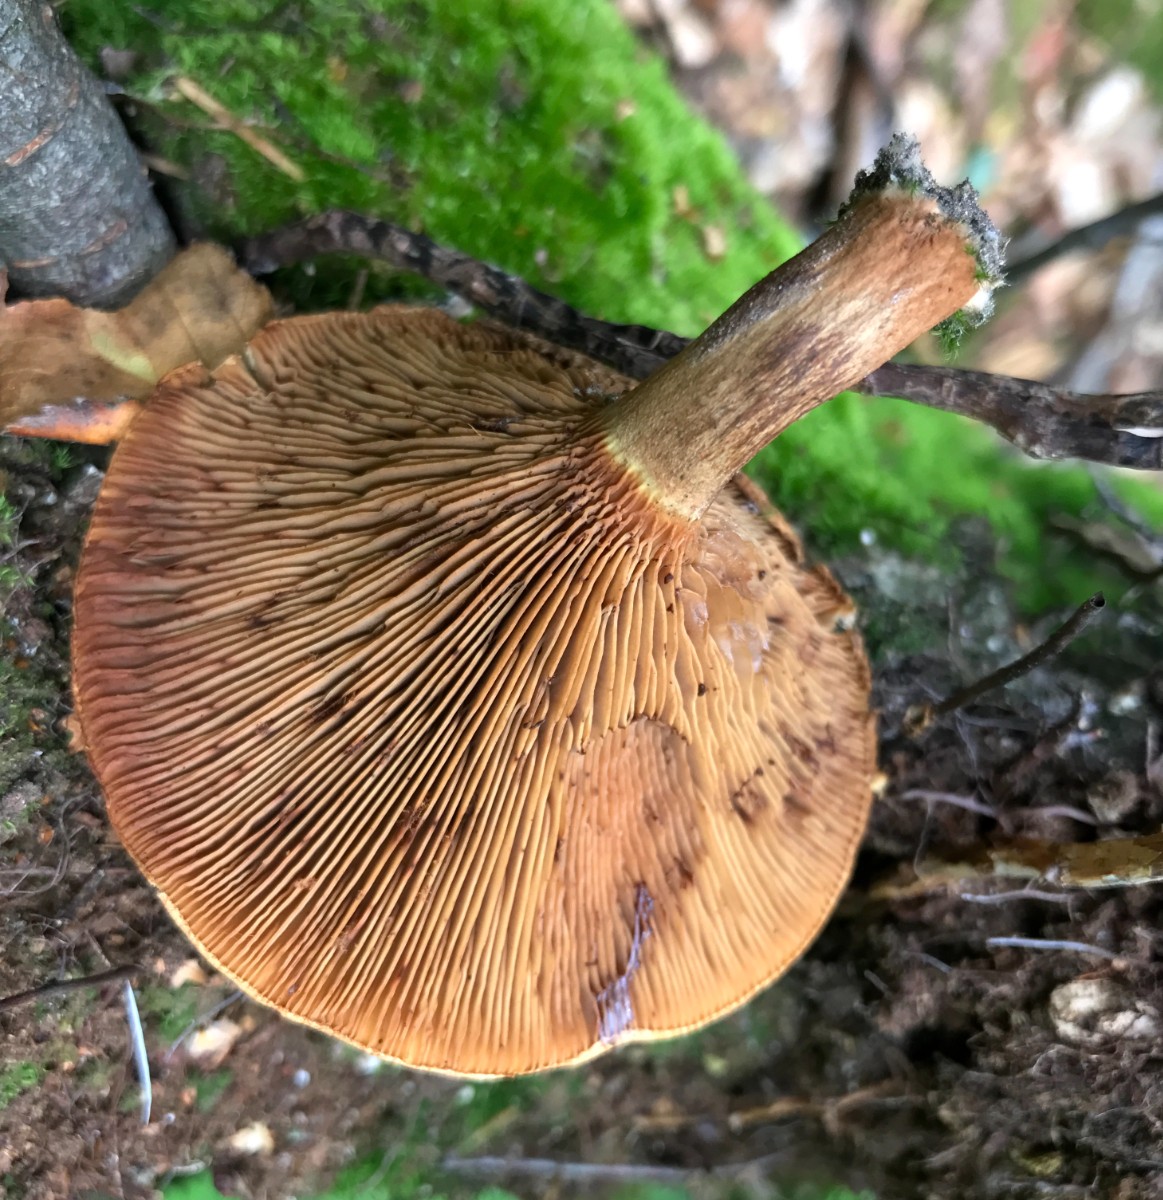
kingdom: Fungi
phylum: Basidiomycota
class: Agaricomycetes
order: Boletales
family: Paxillaceae
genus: Paxillus
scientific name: Paxillus involutus
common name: almindelig netbladhat
